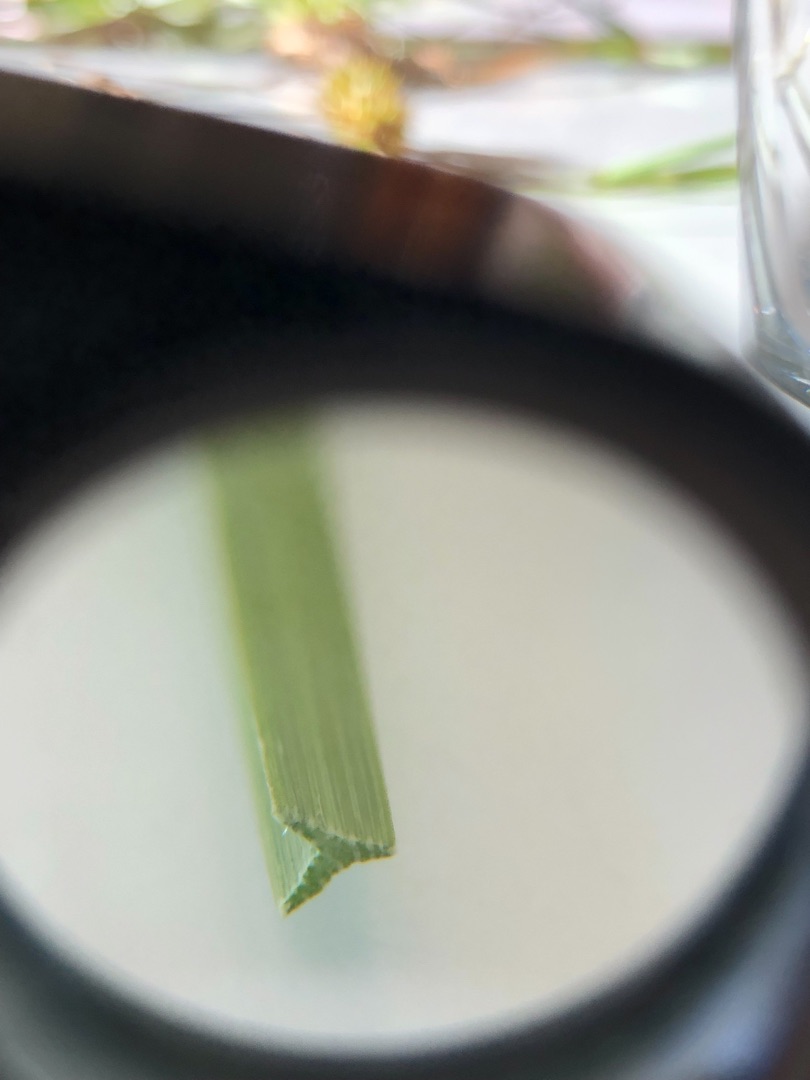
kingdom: Plantae
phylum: Tracheophyta
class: Liliopsida
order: Poales
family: Cyperaceae
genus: Carex
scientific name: Carex otrubae
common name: Sylt-star
